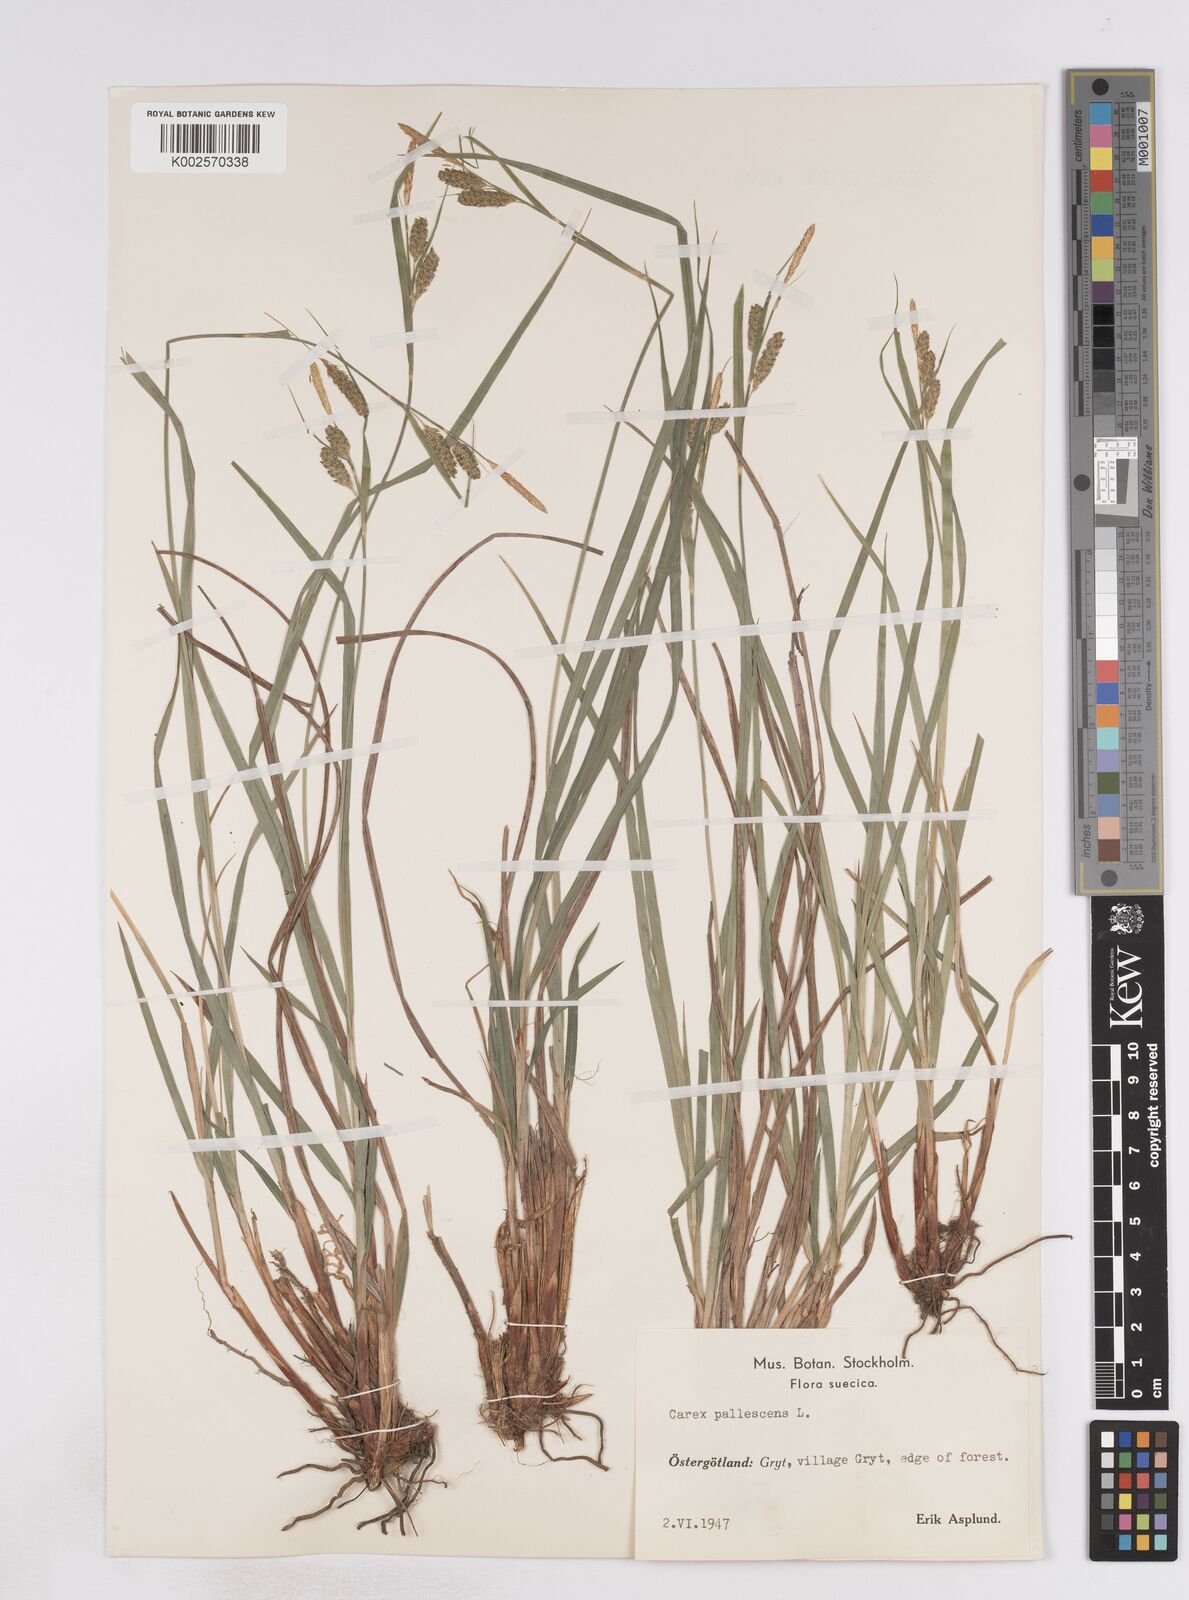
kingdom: Plantae
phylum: Tracheophyta
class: Liliopsida
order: Poales
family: Cyperaceae
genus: Carex
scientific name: Carex pallescens
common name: Pale sedge
